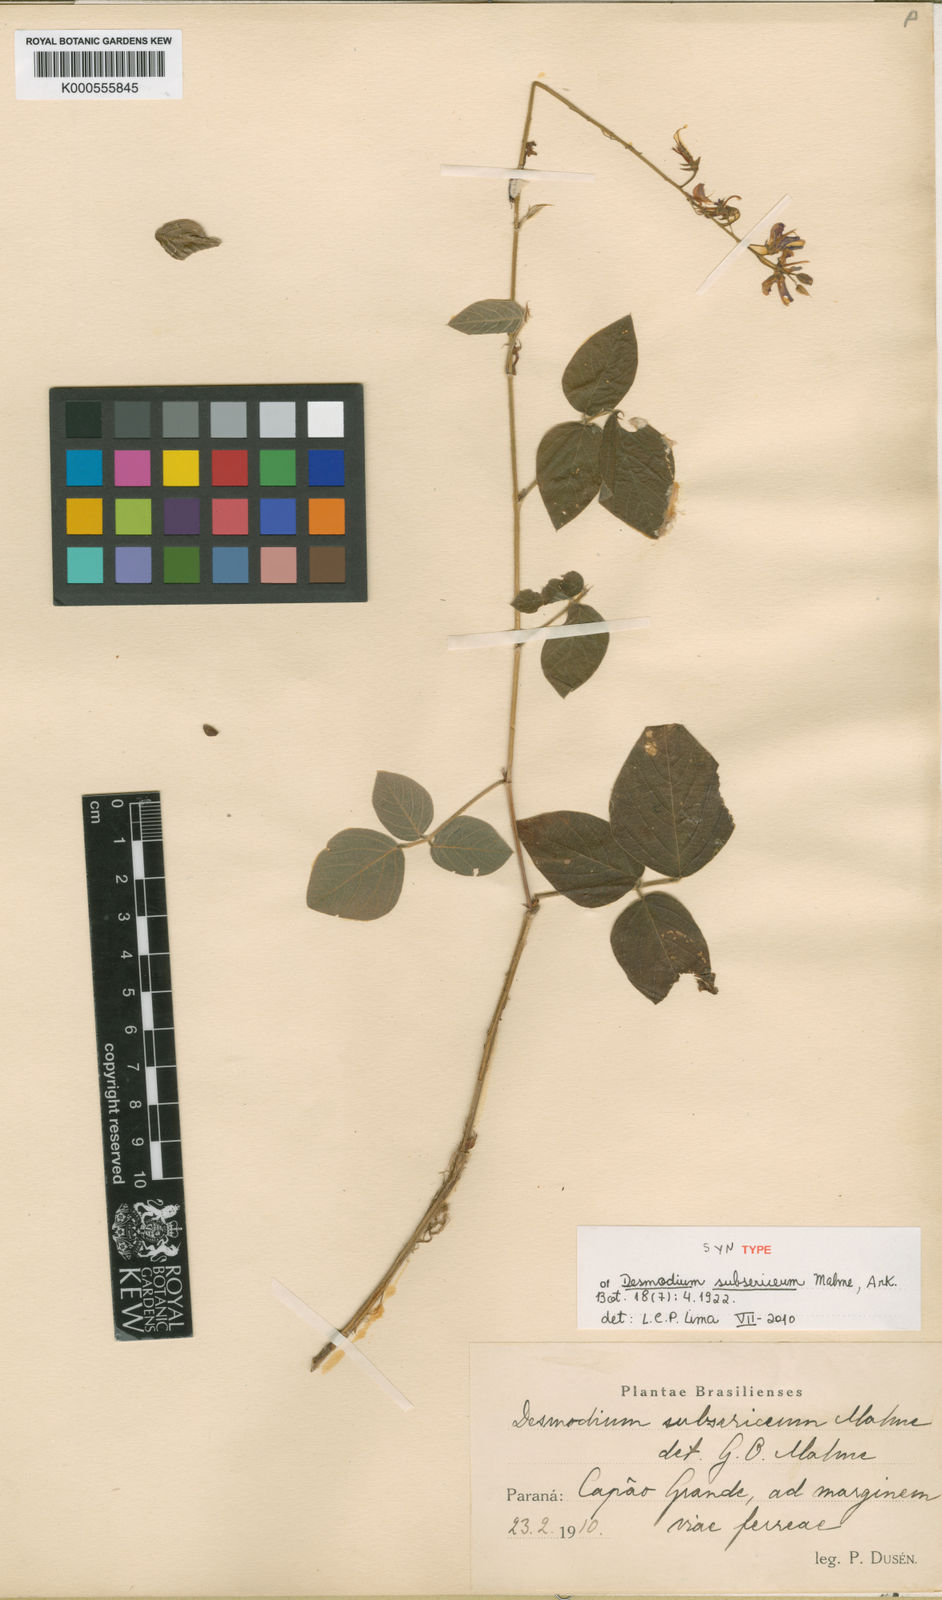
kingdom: Plantae
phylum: Tracheophyta
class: Magnoliopsida
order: Fabales
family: Fabaceae
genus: Desmodium
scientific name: Desmodium subsericeum
